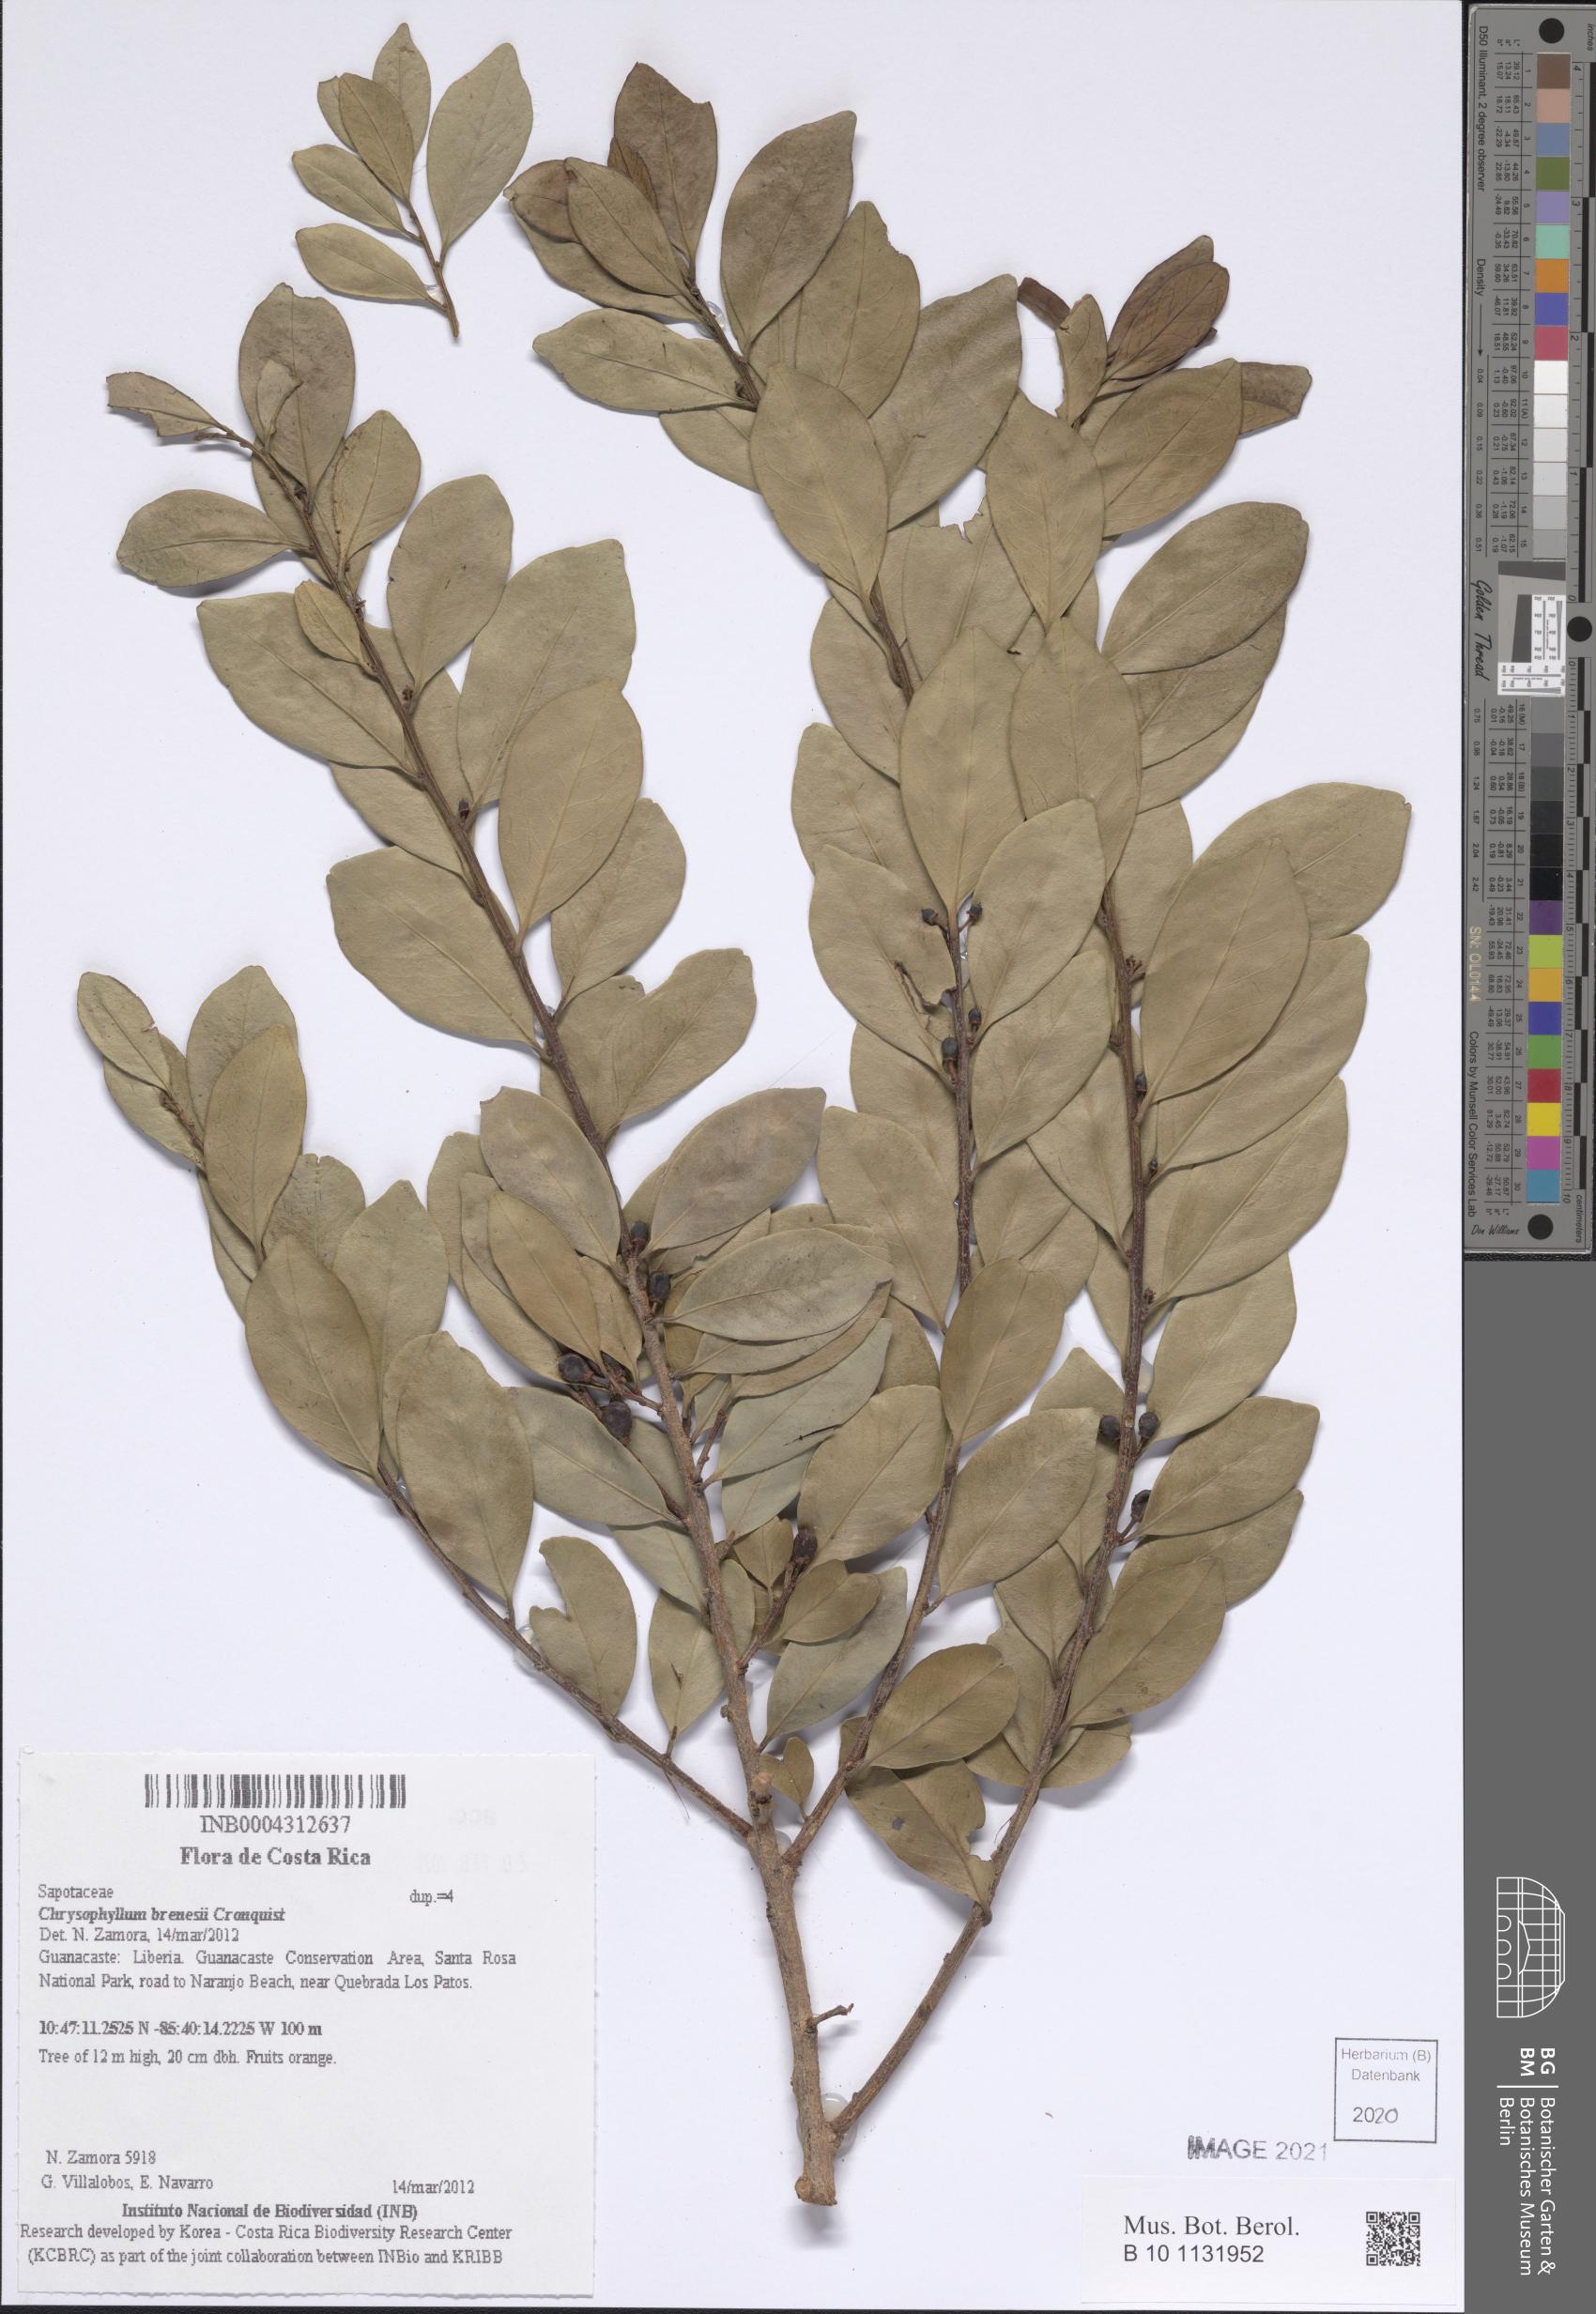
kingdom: Plantae
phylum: Tracheophyta
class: Magnoliopsida
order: Ericales
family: Sapotaceae
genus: Chrysophyllum
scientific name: Chrysophyllum brenesii
